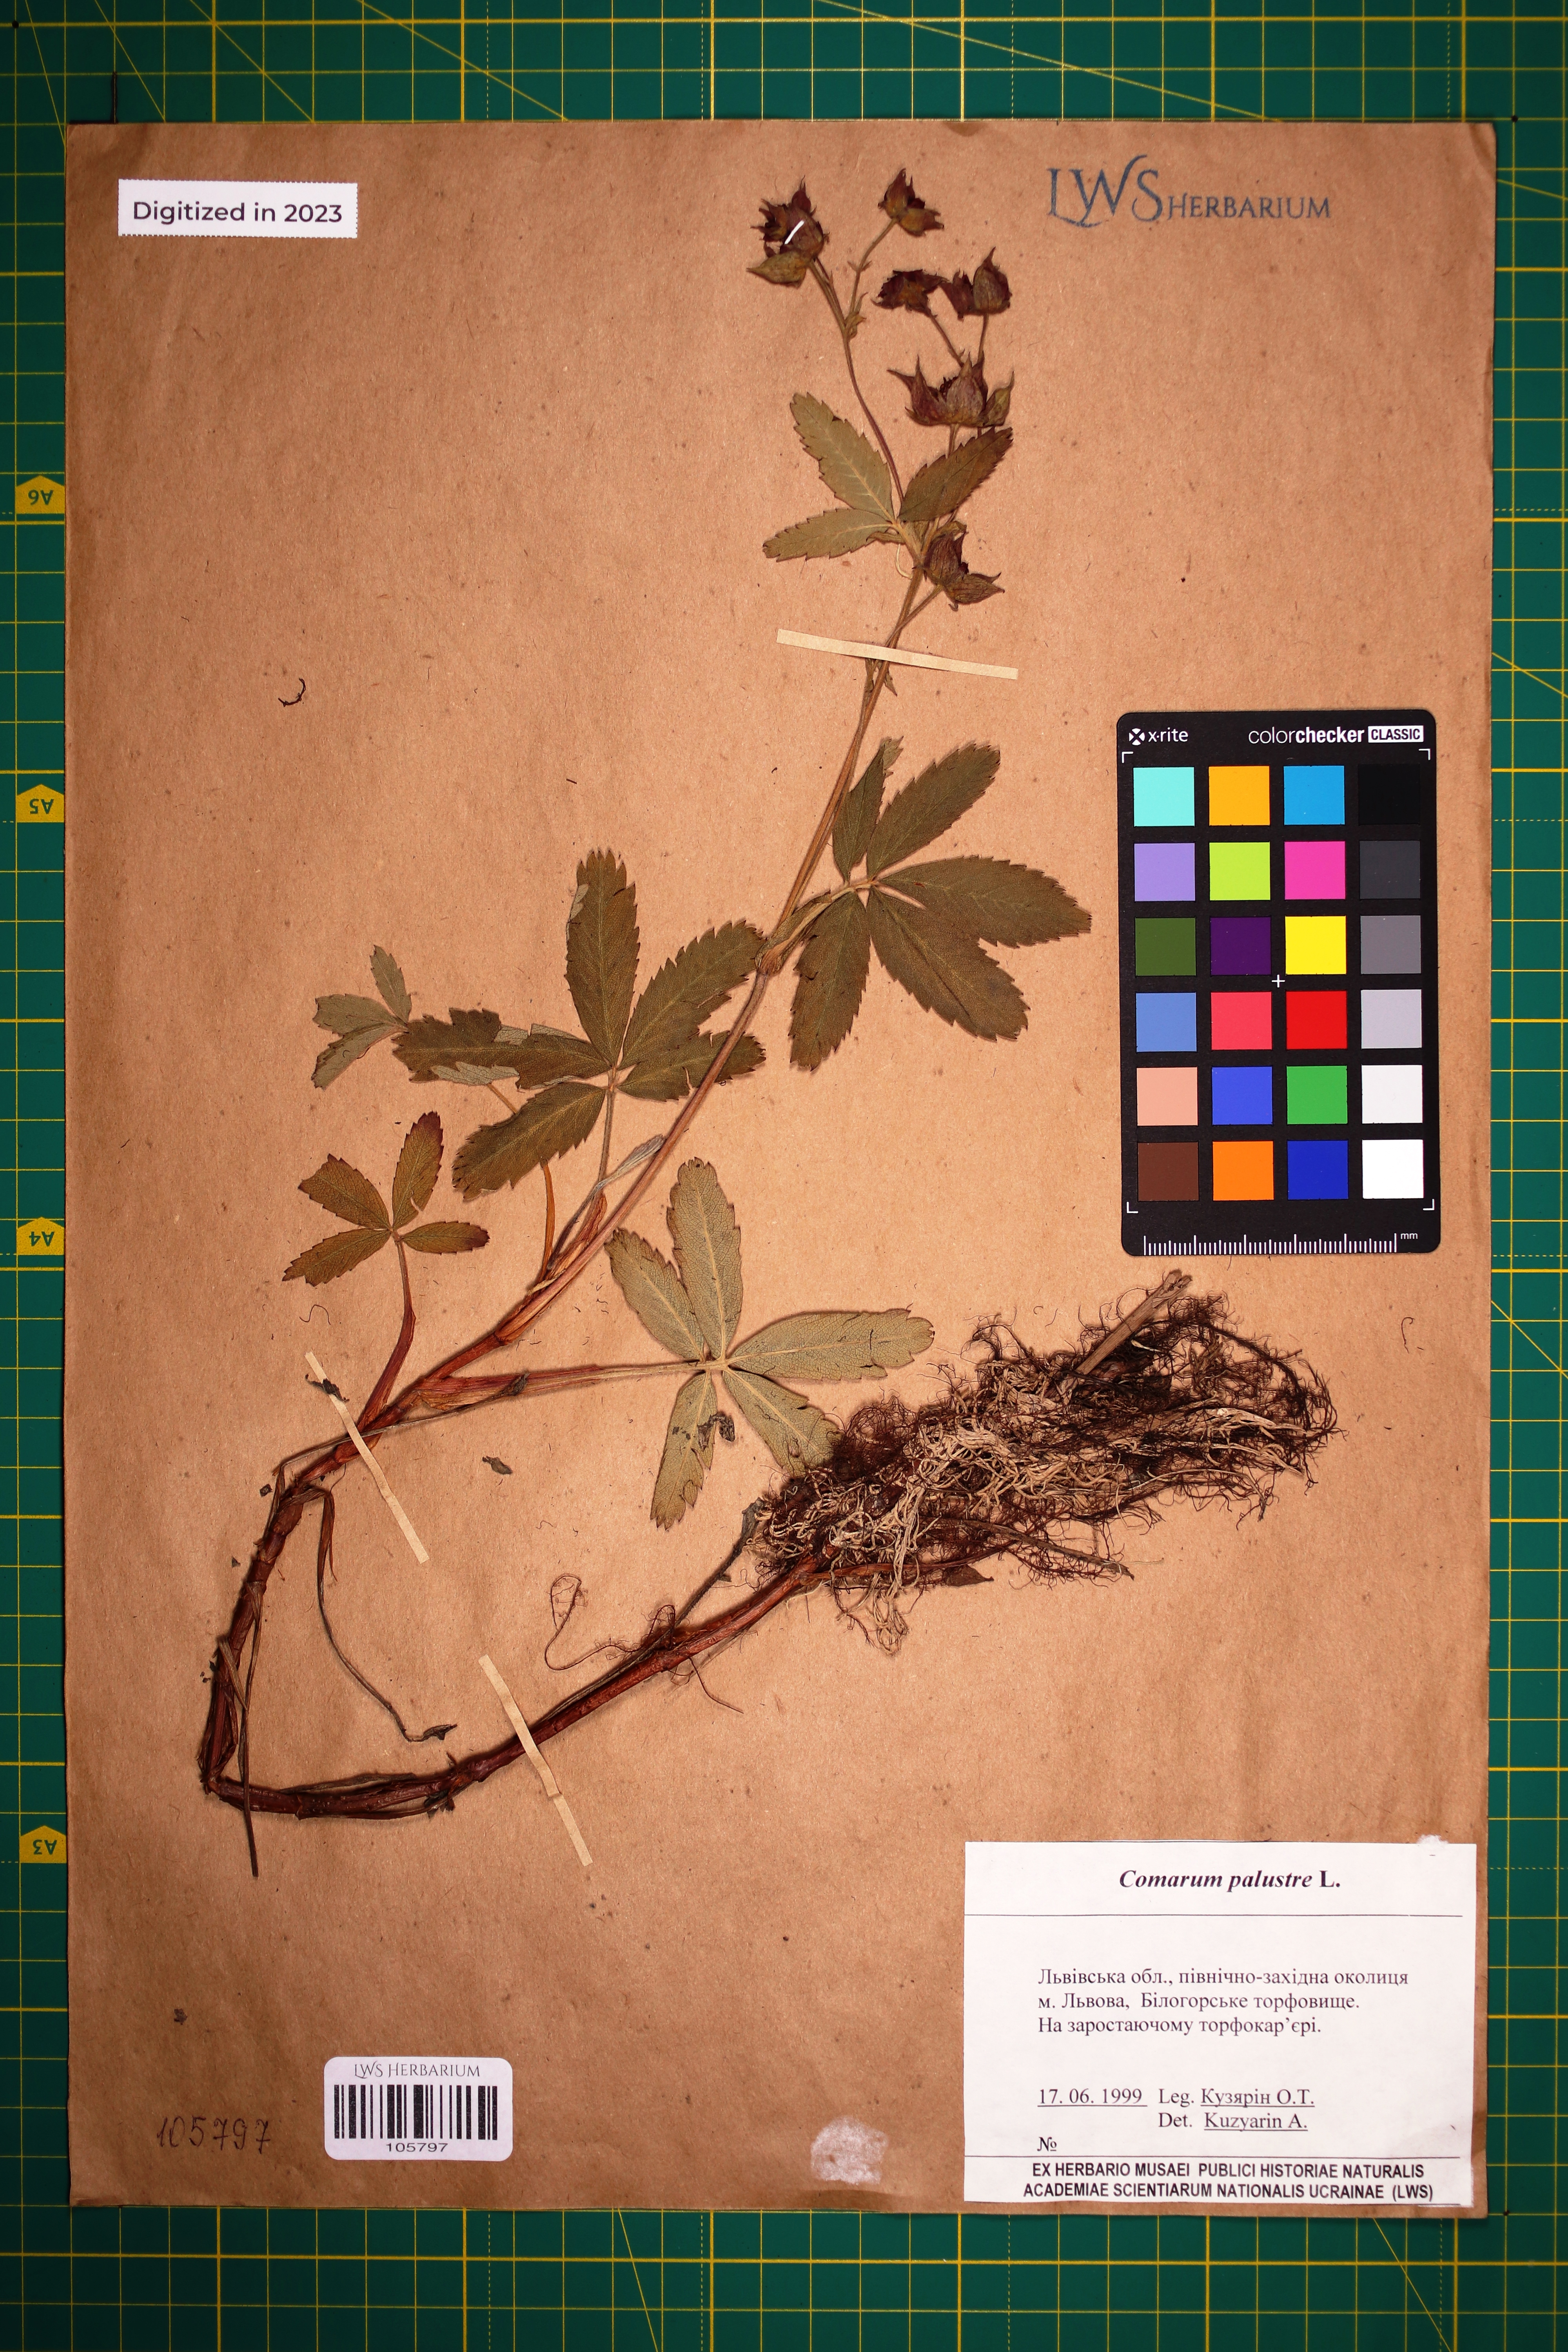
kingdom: Plantae
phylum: Tracheophyta
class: Magnoliopsida
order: Rosales
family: Rosaceae
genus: Comarum
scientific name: Comarum palustre
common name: Marsh cinquefoil
